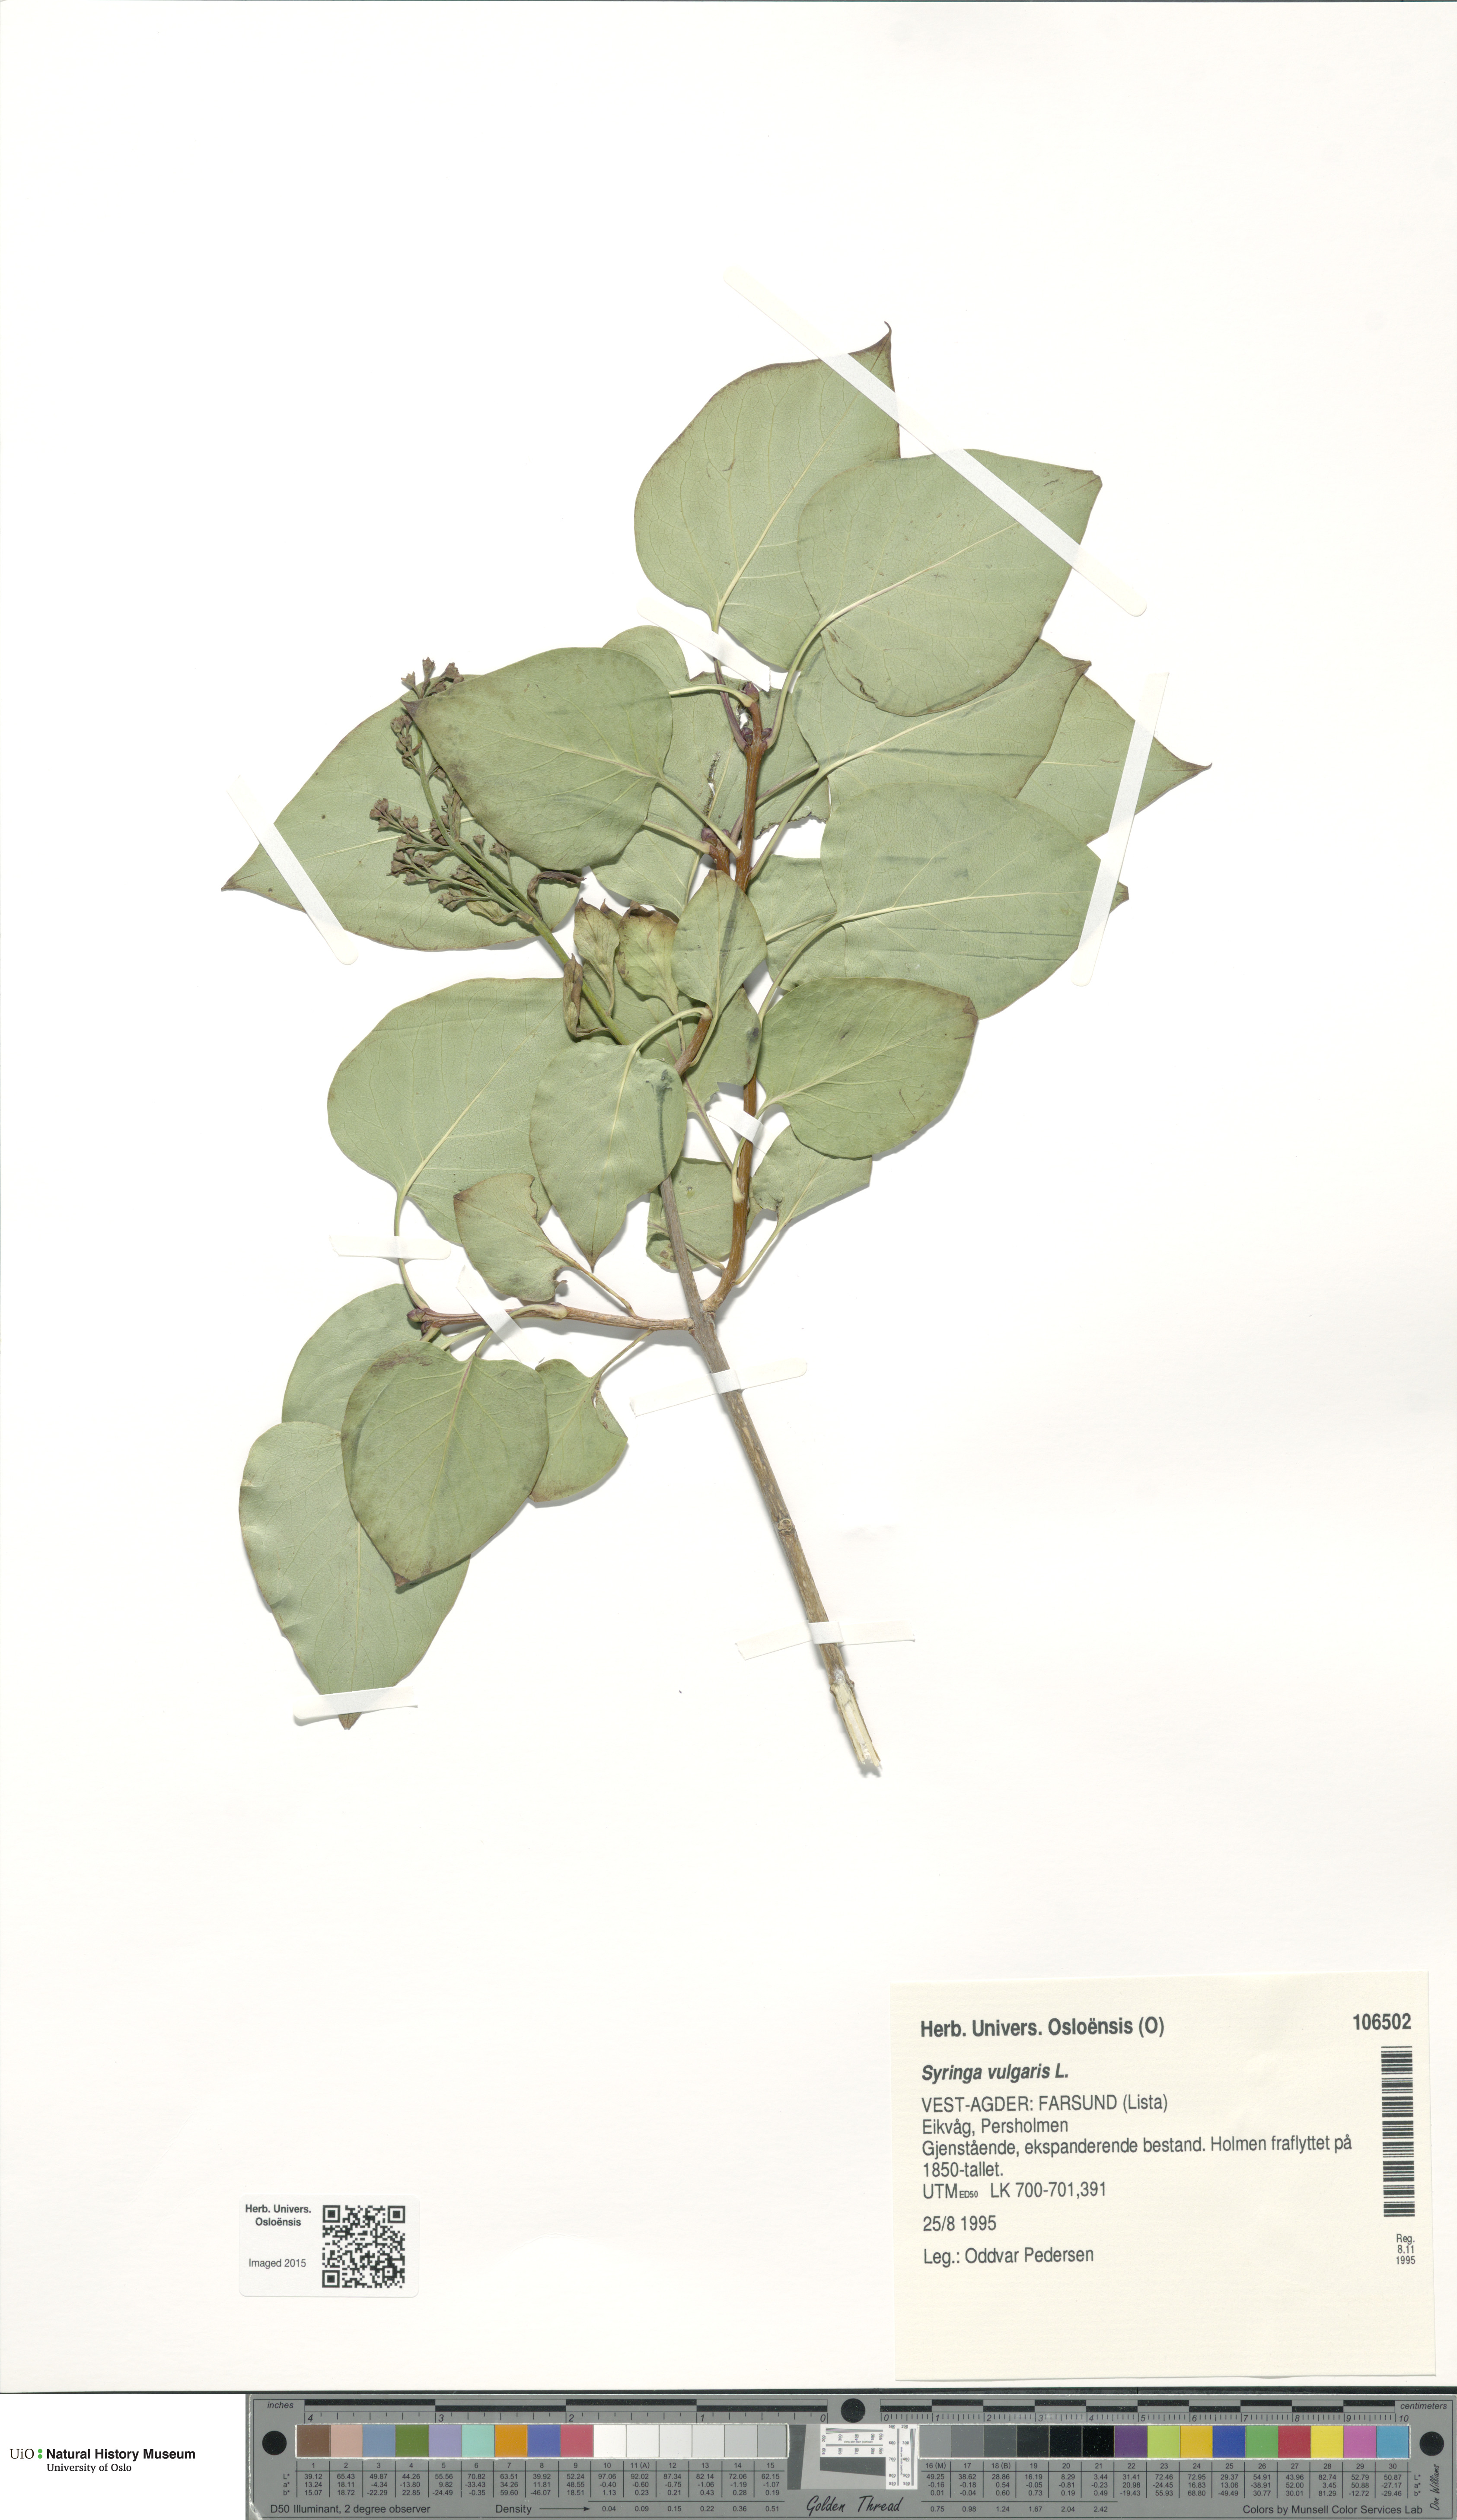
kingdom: Plantae
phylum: Tracheophyta
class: Magnoliopsida
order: Lamiales
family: Oleaceae
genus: Syringa
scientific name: Syringa vulgaris
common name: Common lilac
